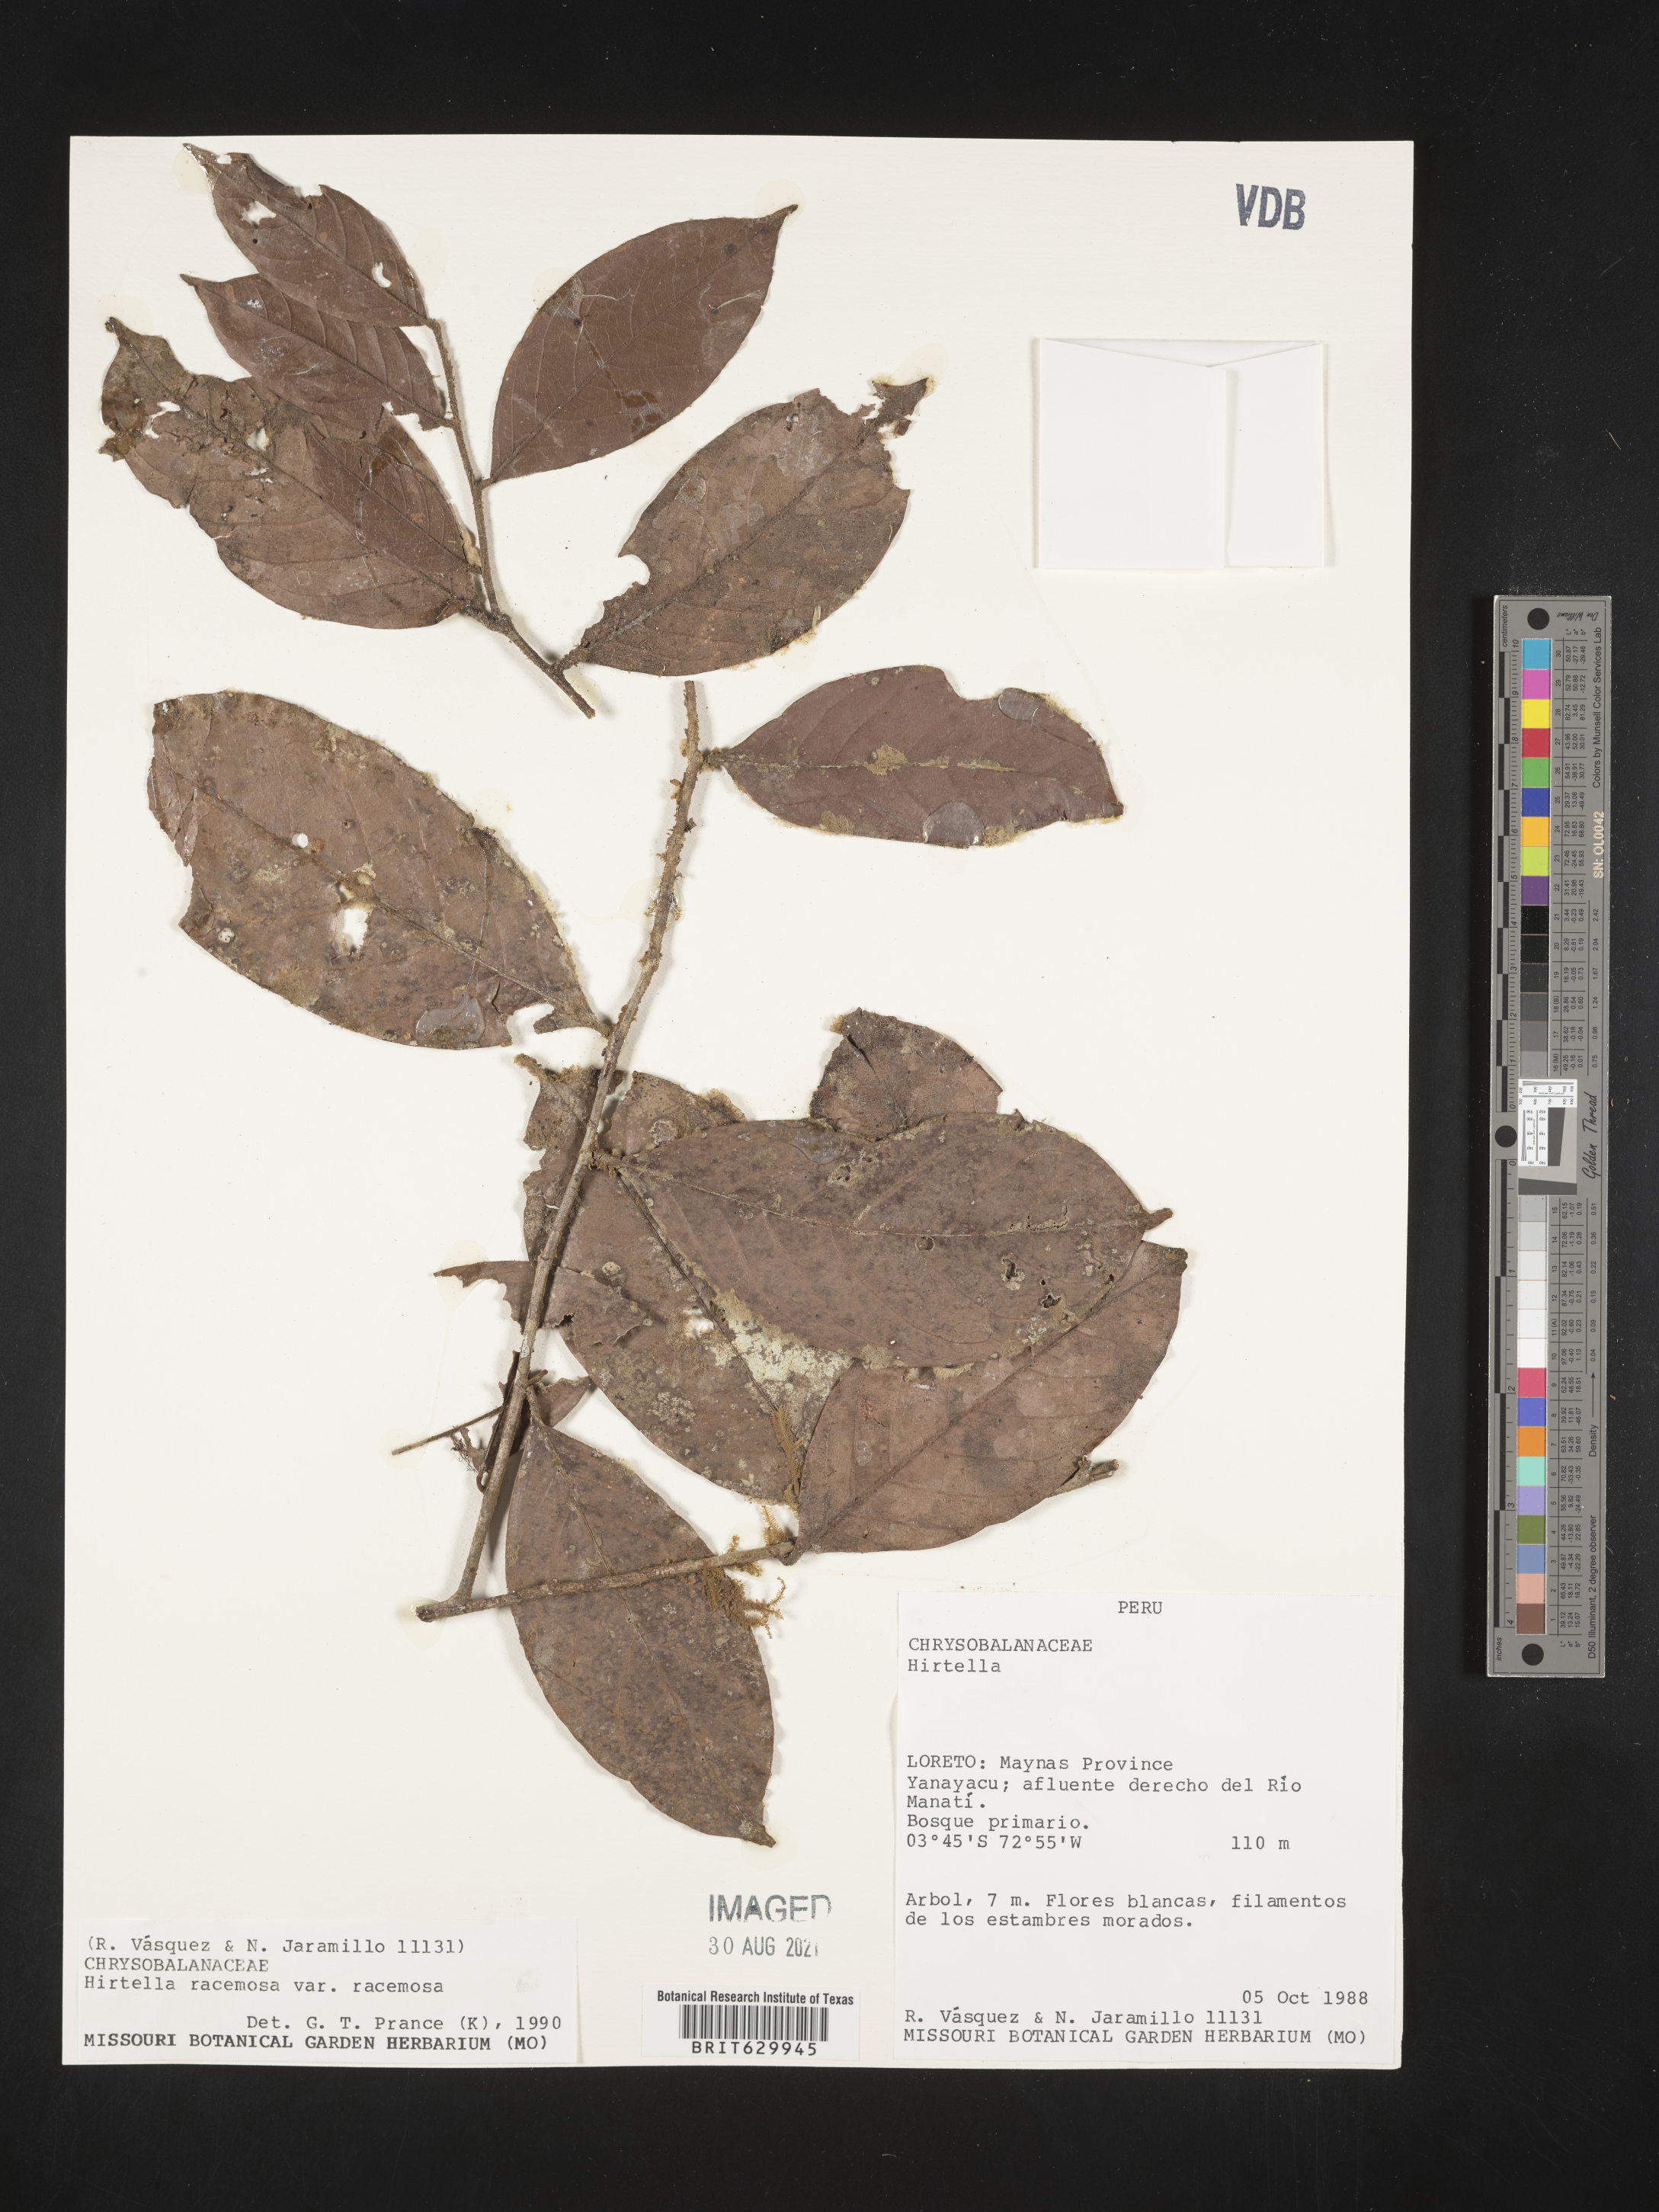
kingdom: Plantae
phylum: Tracheophyta
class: Magnoliopsida
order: Malpighiales
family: Chrysobalanaceae
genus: Hirtella
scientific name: Hirtella racemosa
